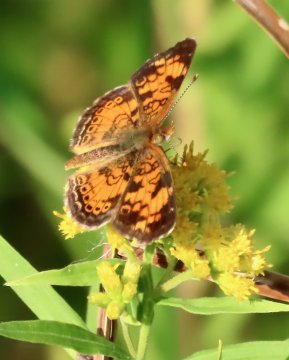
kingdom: Animalia
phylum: Arthropoda
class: Insecta
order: Lepidoptera
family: Nymphalidae
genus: Phyciodes
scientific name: Phyciodes tharos
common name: Pearl Crescent
